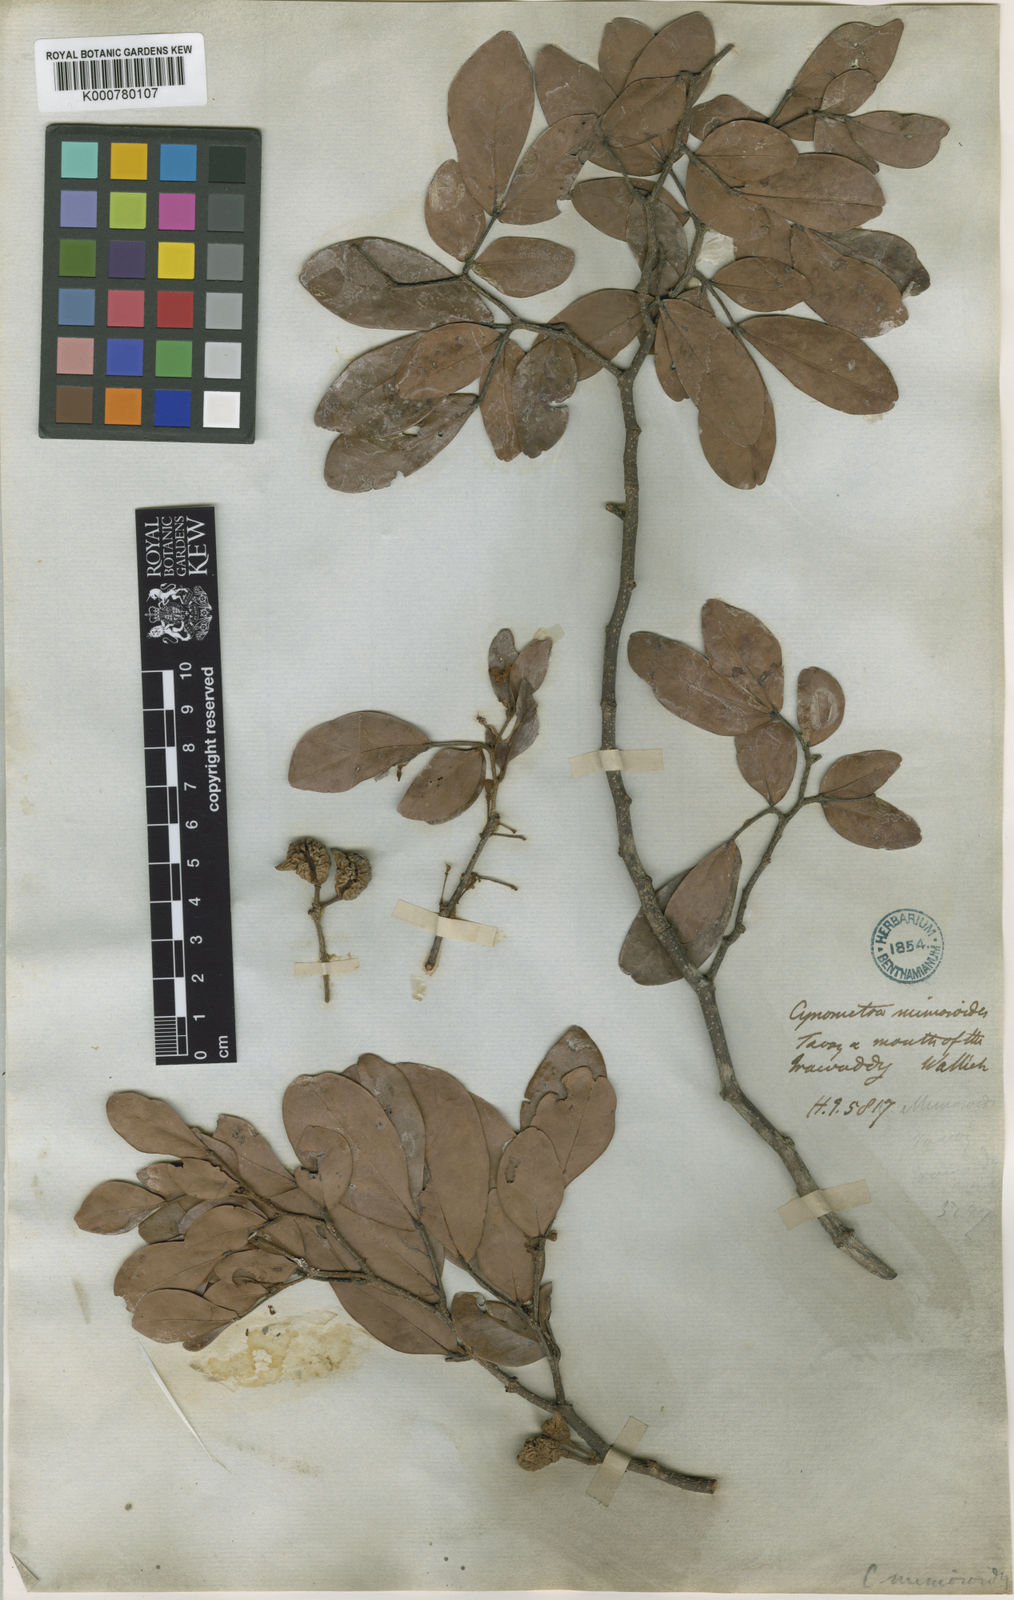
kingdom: Plantae
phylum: Tracheophyta
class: Magnoliopsida
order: Fabales
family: Fabaceae
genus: Cynometra
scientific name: Cynometra ramiflora
